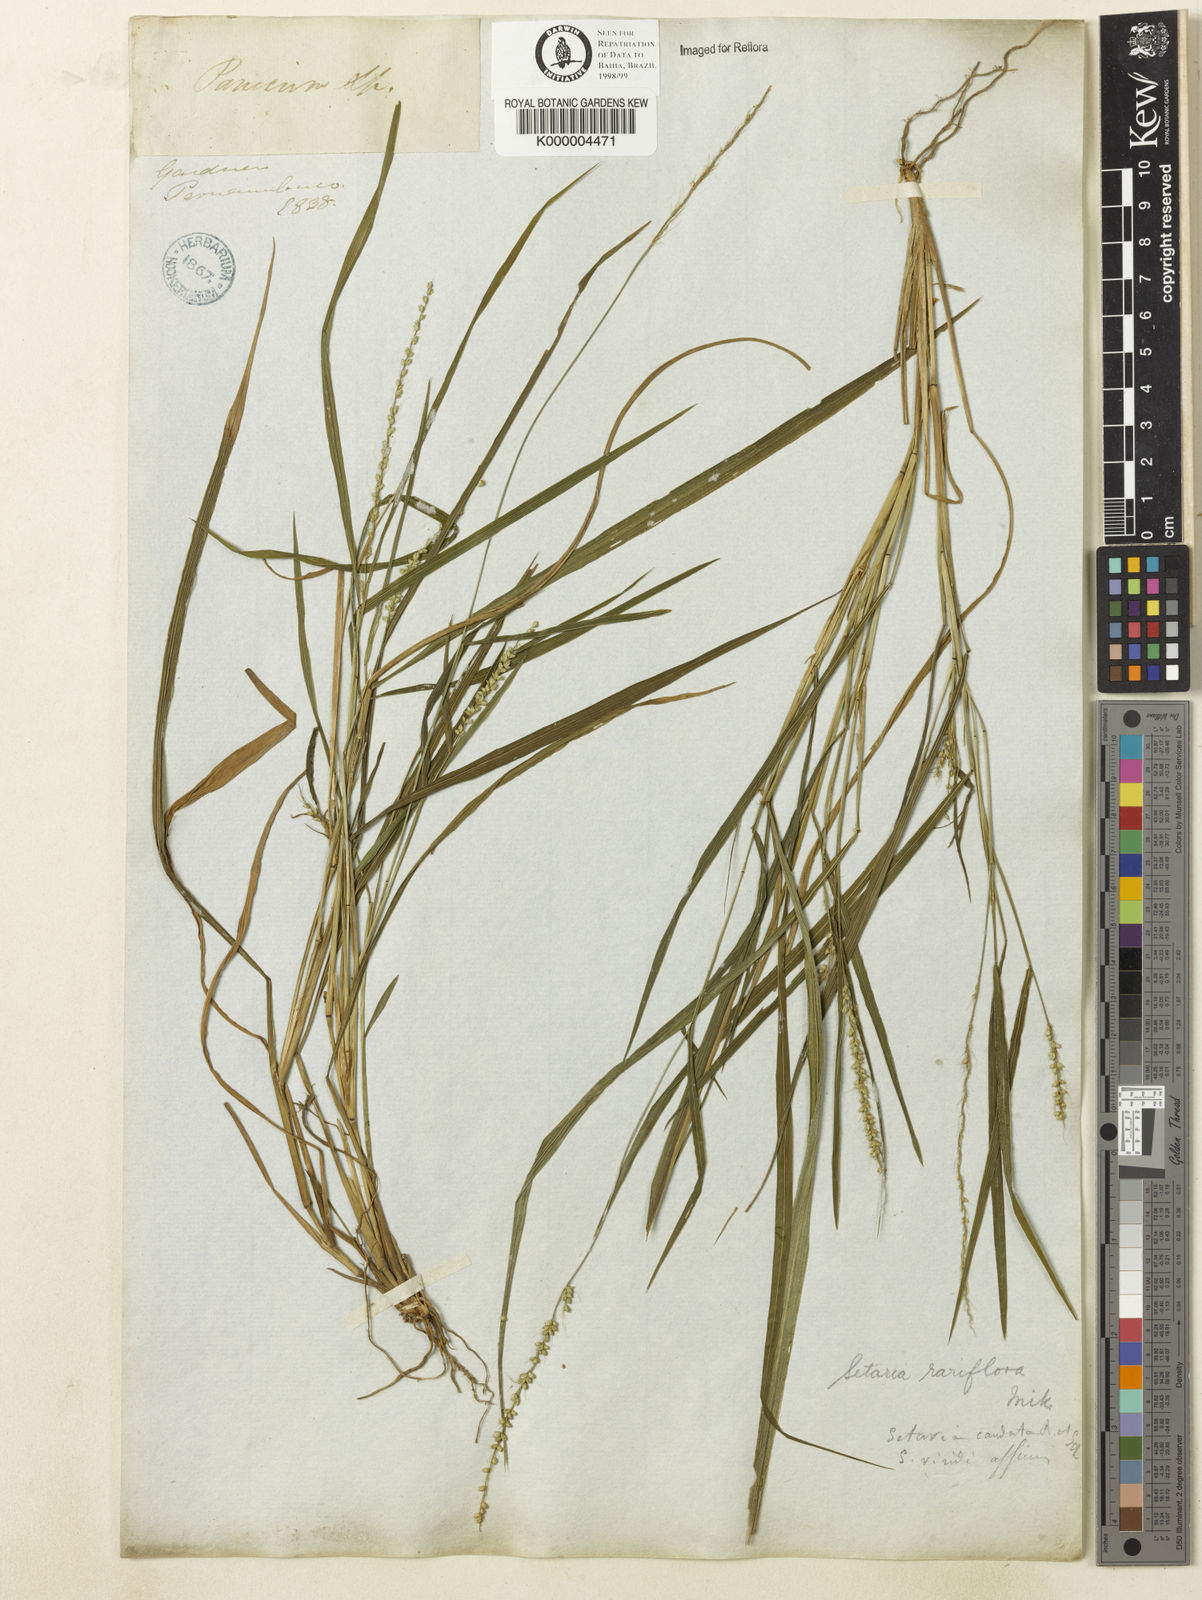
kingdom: Plantae
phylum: Tracheophyta
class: Liliopsida
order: Poales
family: Poaceae
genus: Setaria
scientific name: Setaria setosa
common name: West indies bristle grass
